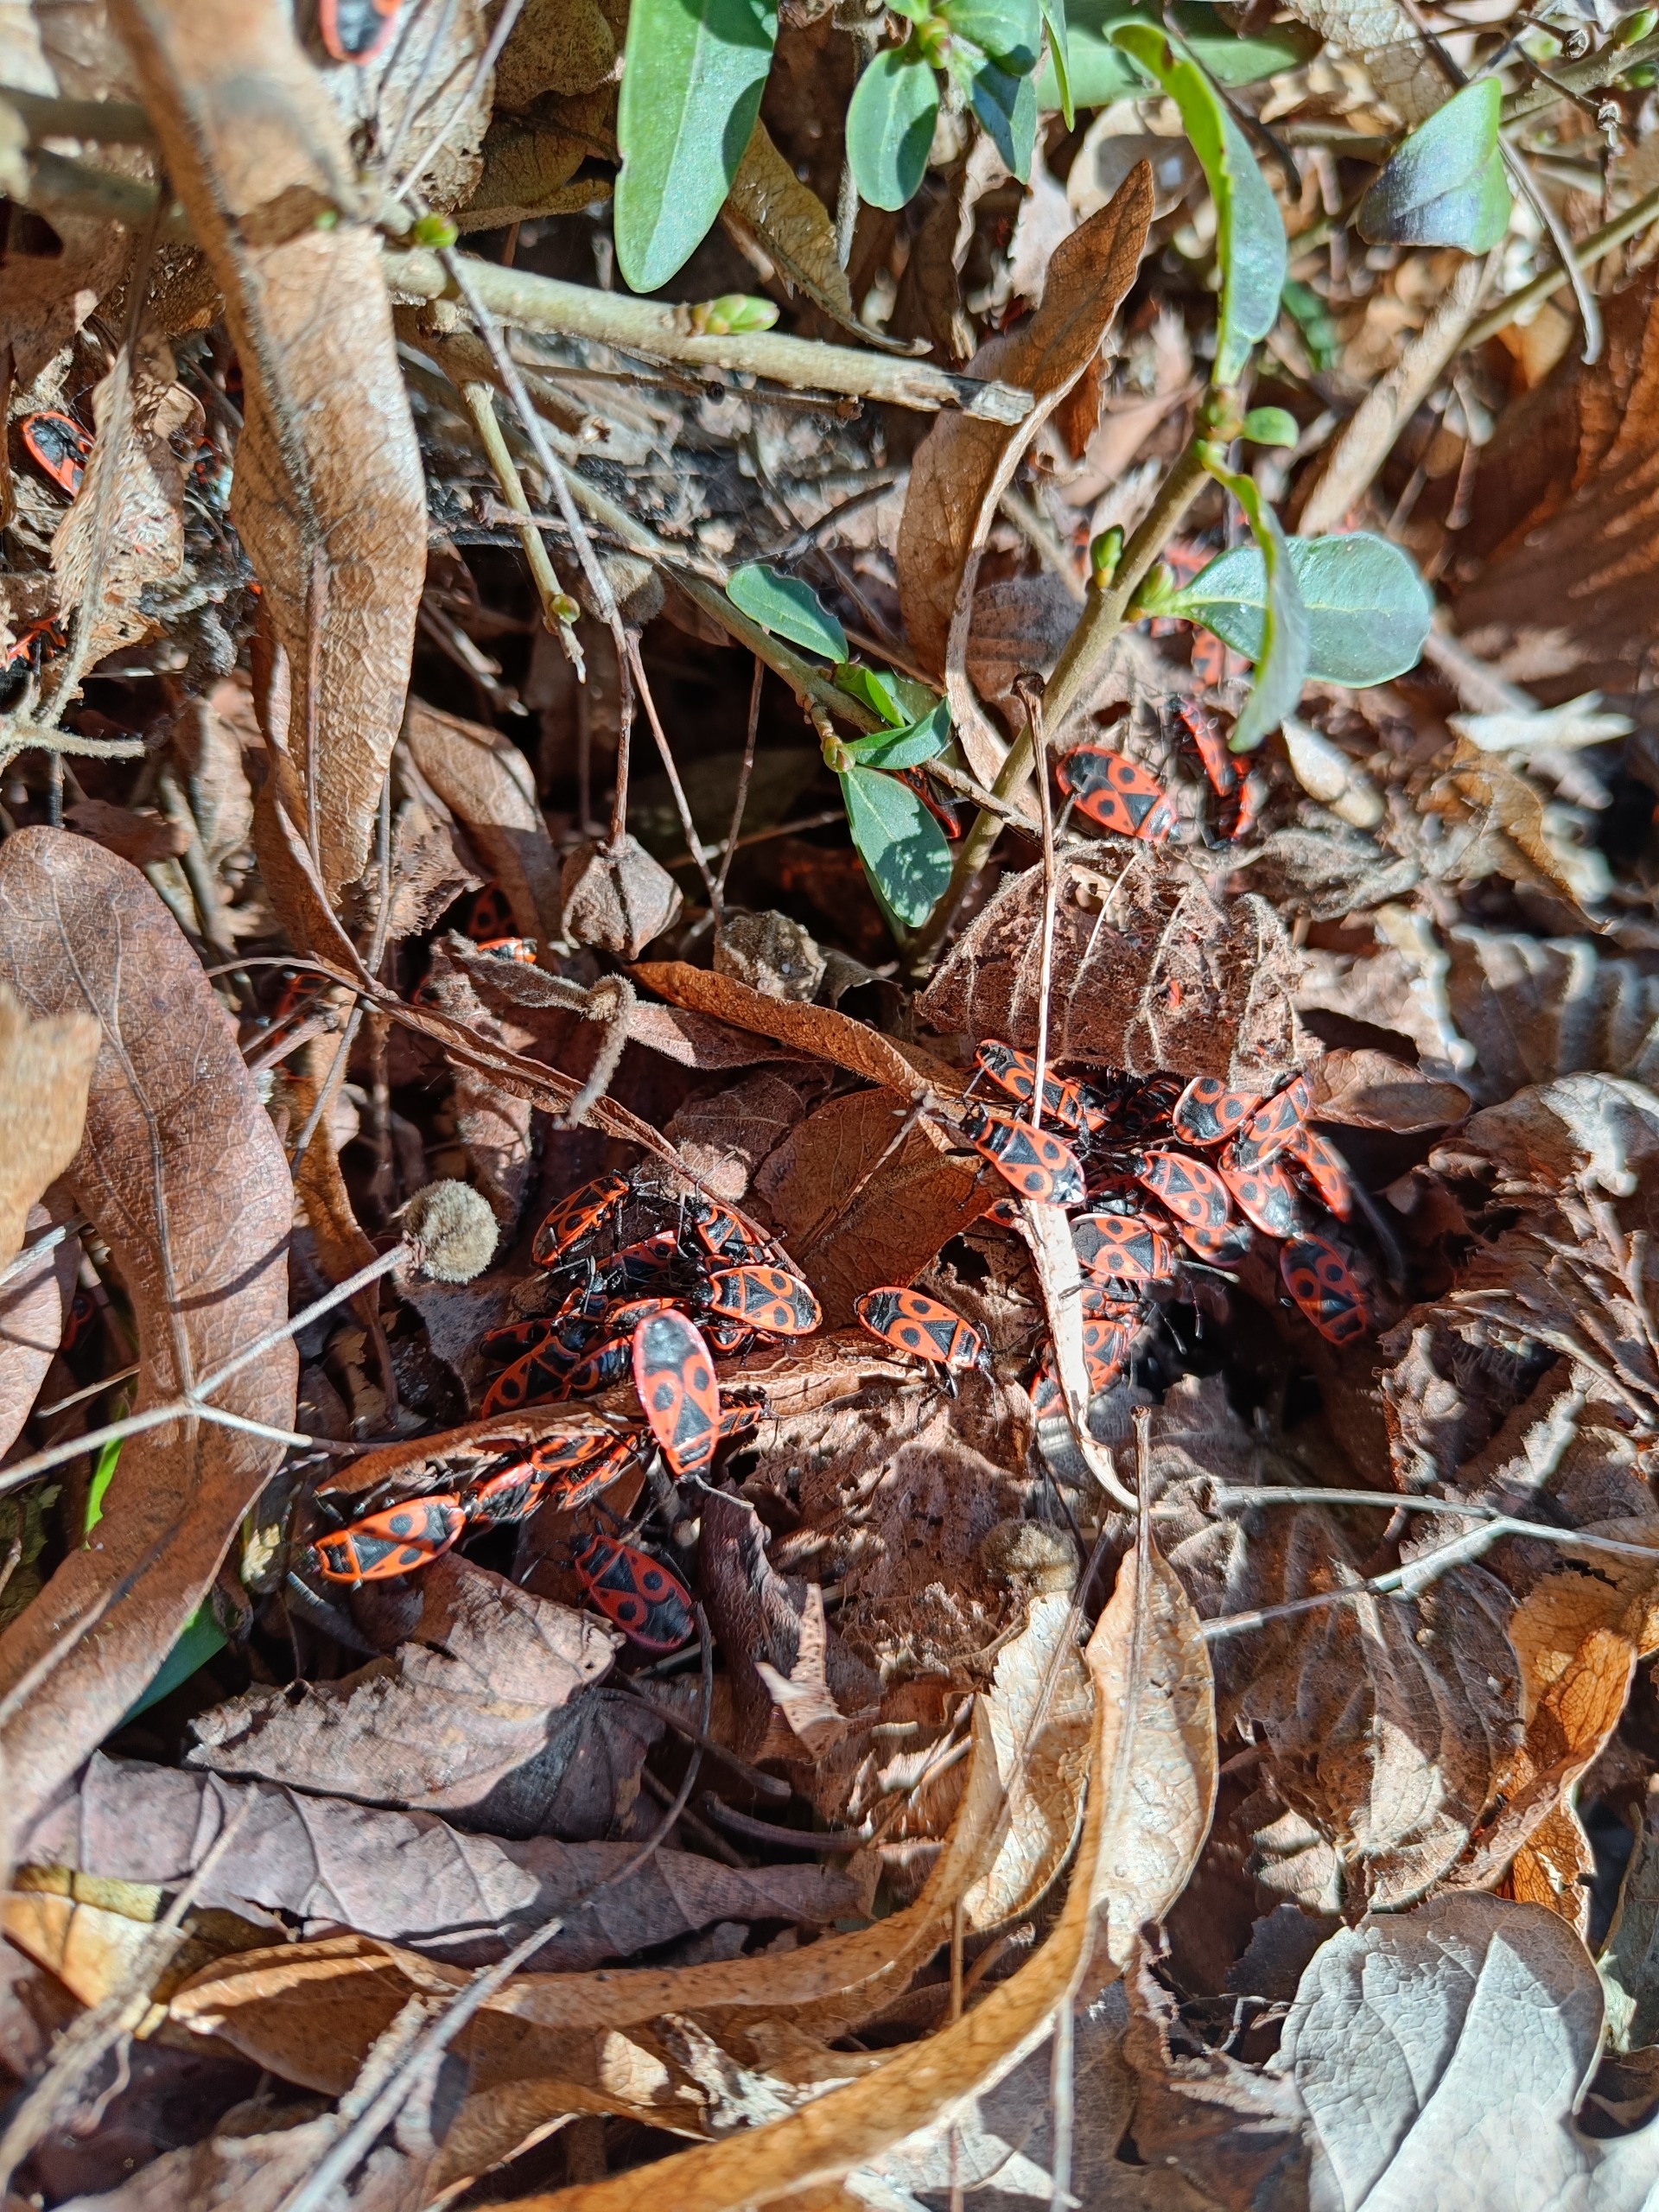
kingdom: Animalia
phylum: Arthropoda
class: Insecta
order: Hemiptera
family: Pyrrhocoridae
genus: Pyrrhocoris
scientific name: Pyrrhocoris apterus
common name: Ildtæge
